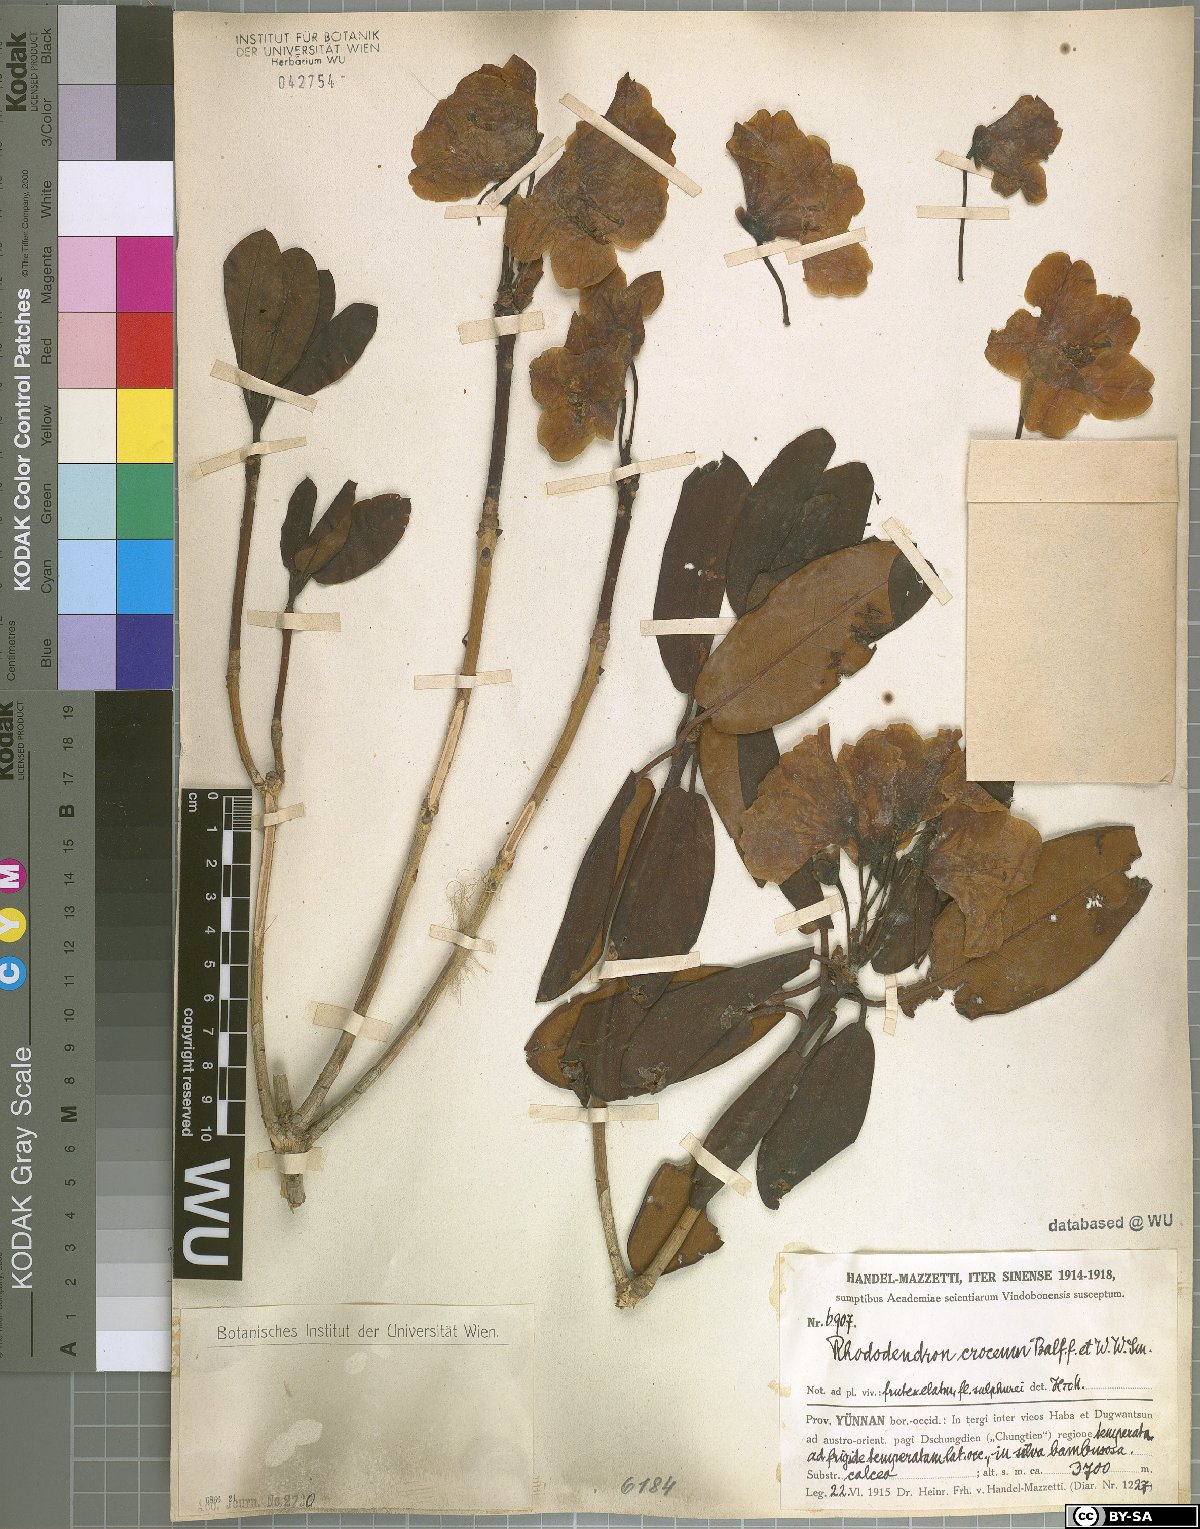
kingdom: Plantae
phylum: Tracheophyta
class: Magnoliopsida
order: Ericales
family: Ericaceae
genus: Rhododendron
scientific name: Rhododendron wardii
